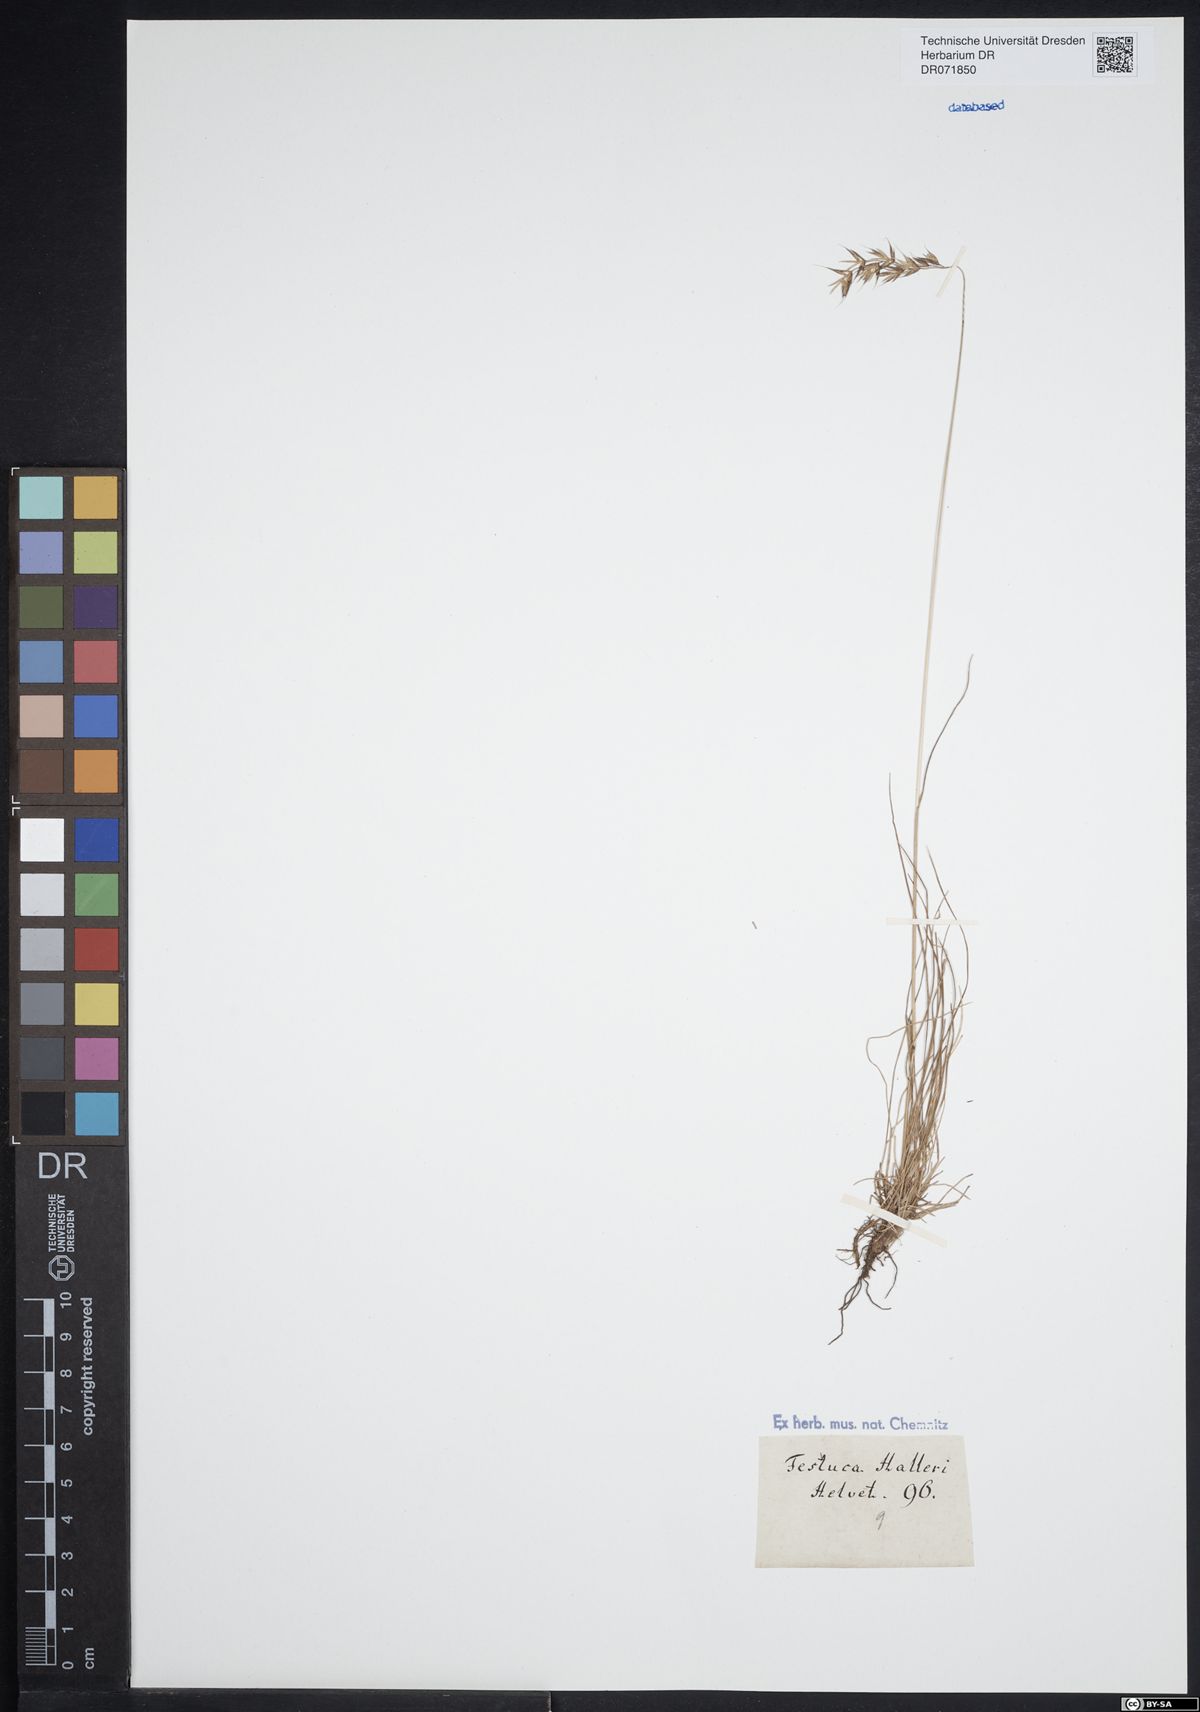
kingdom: Plantae
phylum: Tracheophyta
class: Liliopsida
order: Poales
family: Poaceae
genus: Festuca
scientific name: Festuca halleri
